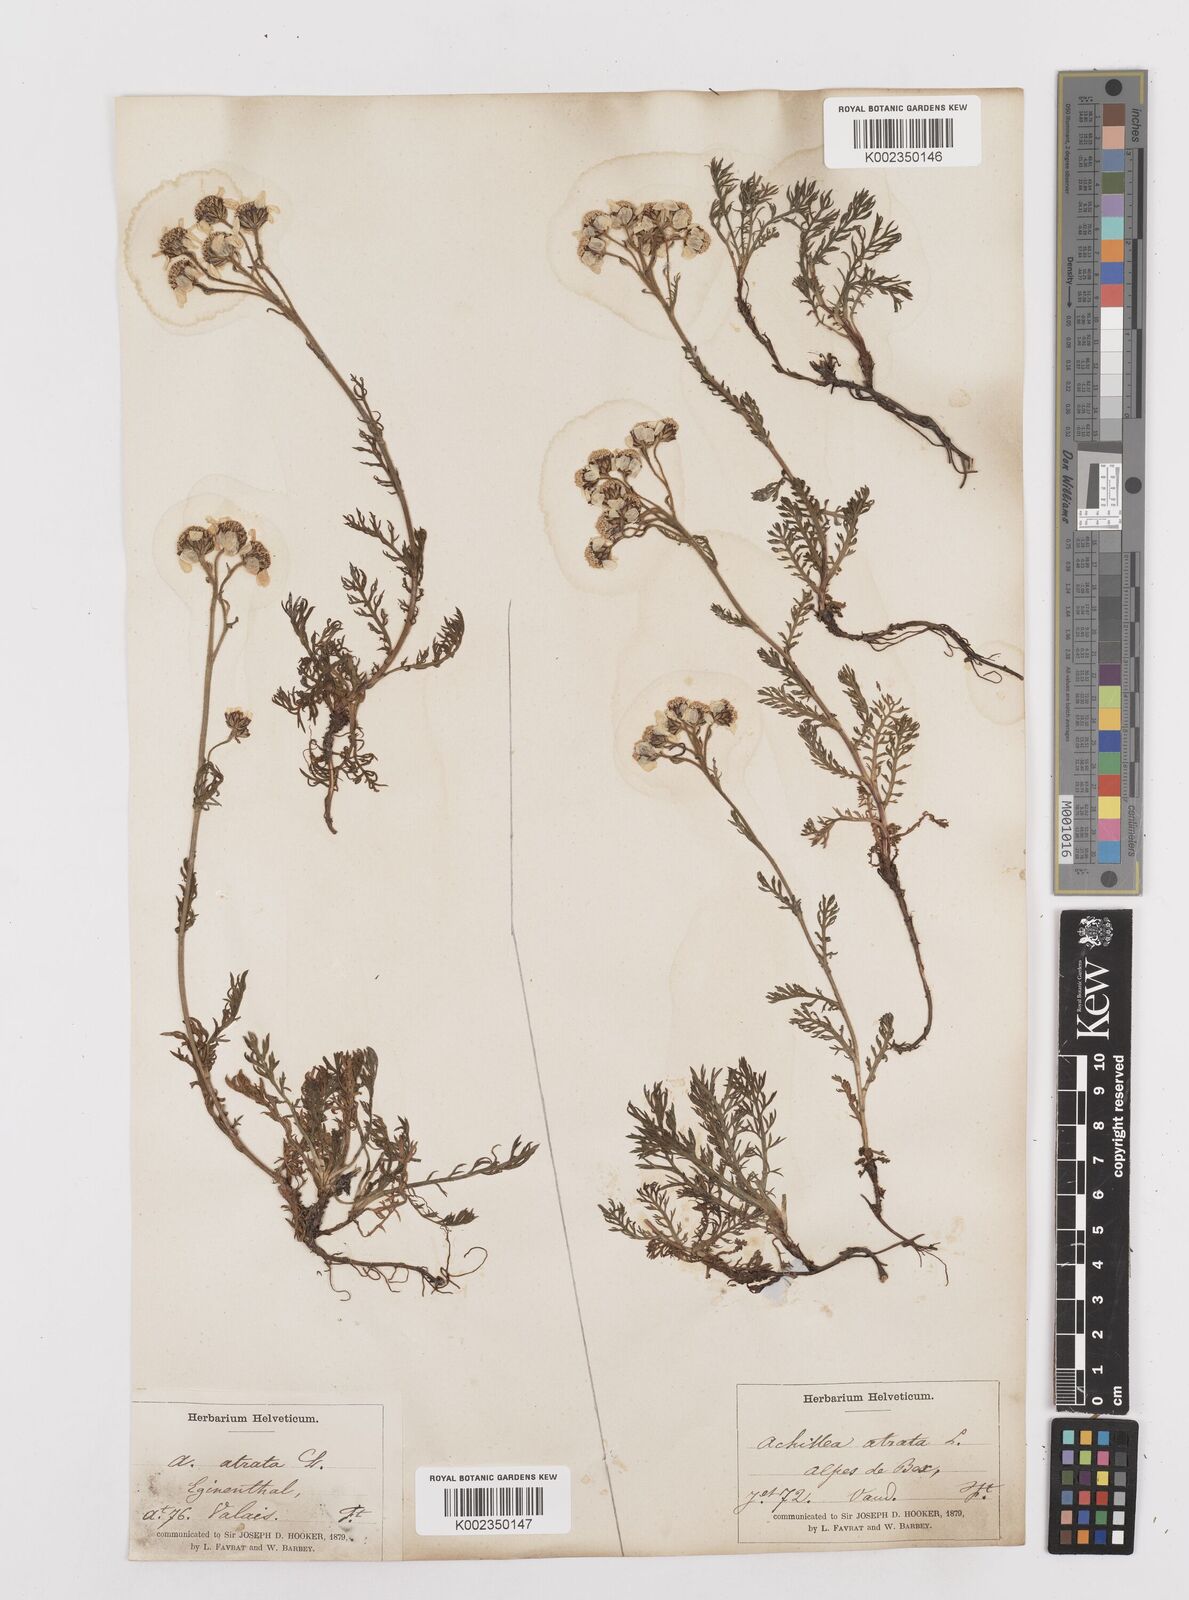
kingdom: Plantae
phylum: Tracheophyta
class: Magnoliopsida
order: Asterales
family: Asteraceae
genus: Achillea
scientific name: Achillea atrata
